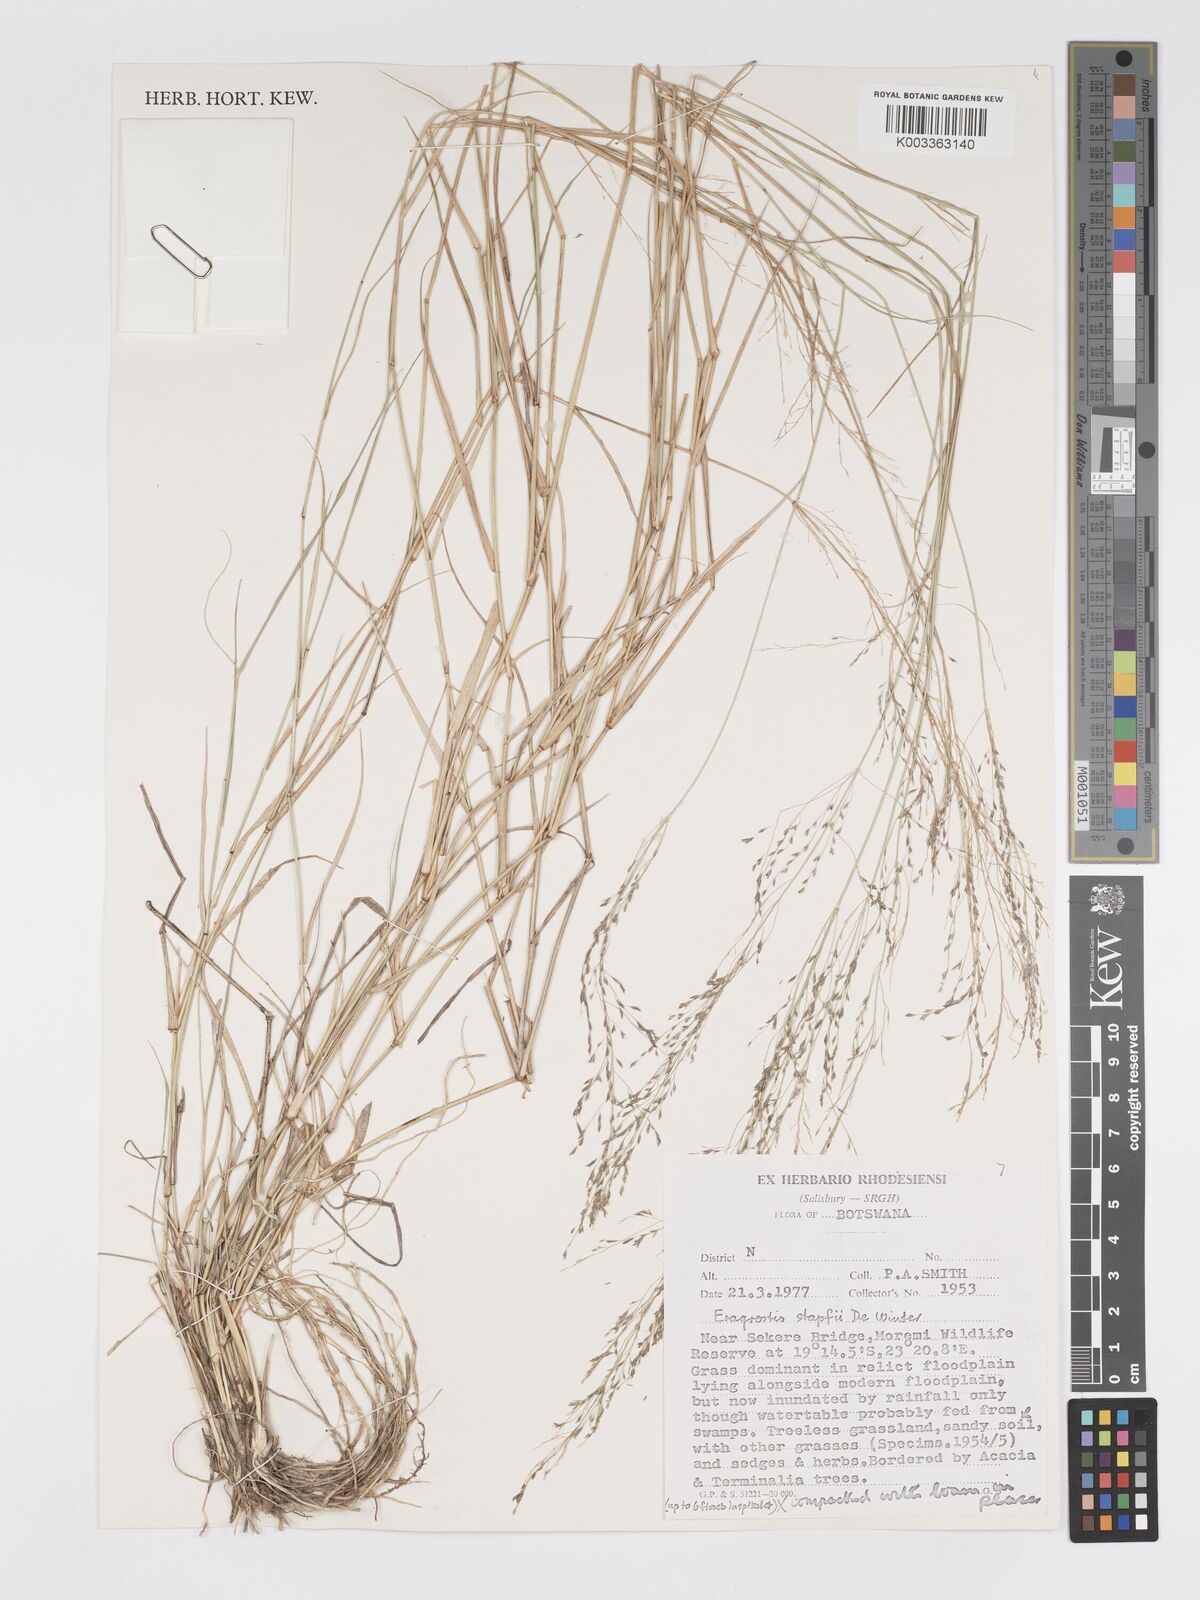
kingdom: Plantae
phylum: Tracheophyta
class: Liliopsida
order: Poales
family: Poaceae
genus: Eragrostis
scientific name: Eragrostis cylindriflora
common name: Cylinderflower lovegrass
